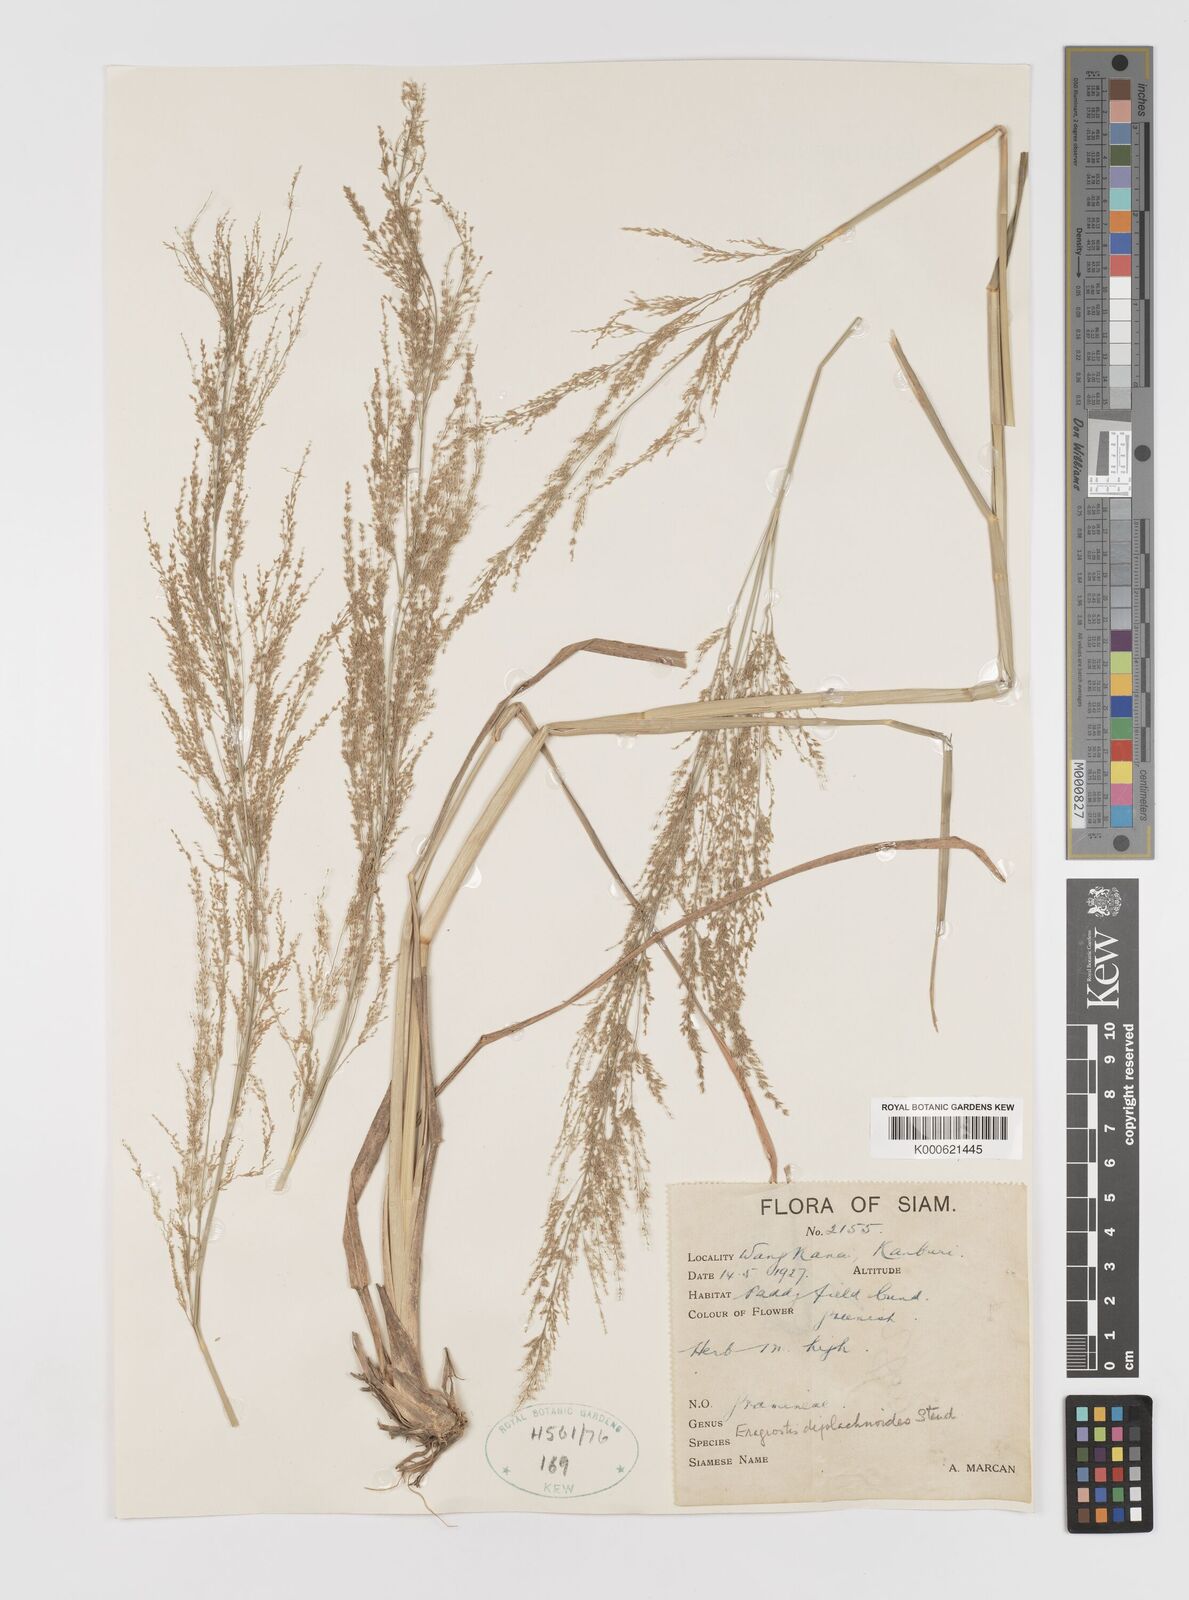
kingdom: Plantae
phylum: Tracheophyta
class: Liliopsida
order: Poales
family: Poaceae
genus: Eragrostis
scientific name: Eragrostis japonica
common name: Pond lovegrass
